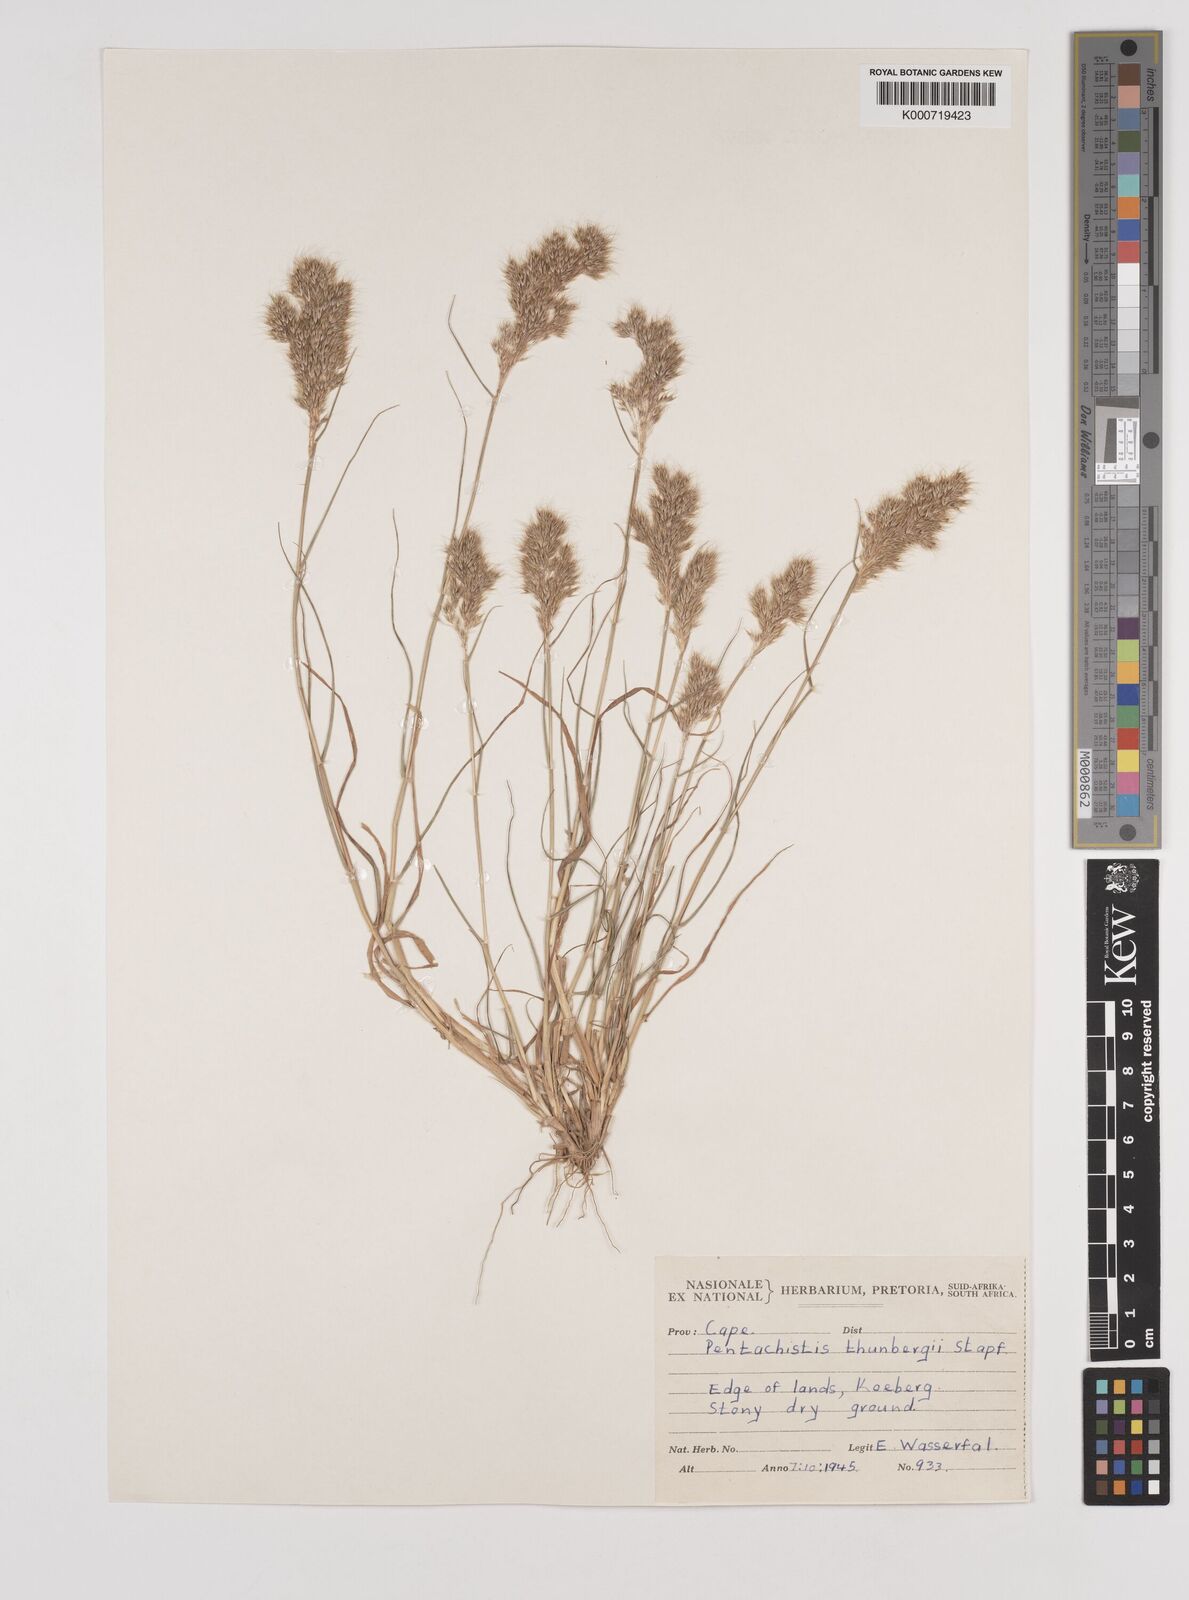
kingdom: Plantae
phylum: Tracheophyta
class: Liliopsida
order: Poales
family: Poaceae
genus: Pentameris
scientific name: Pentameris triseta
